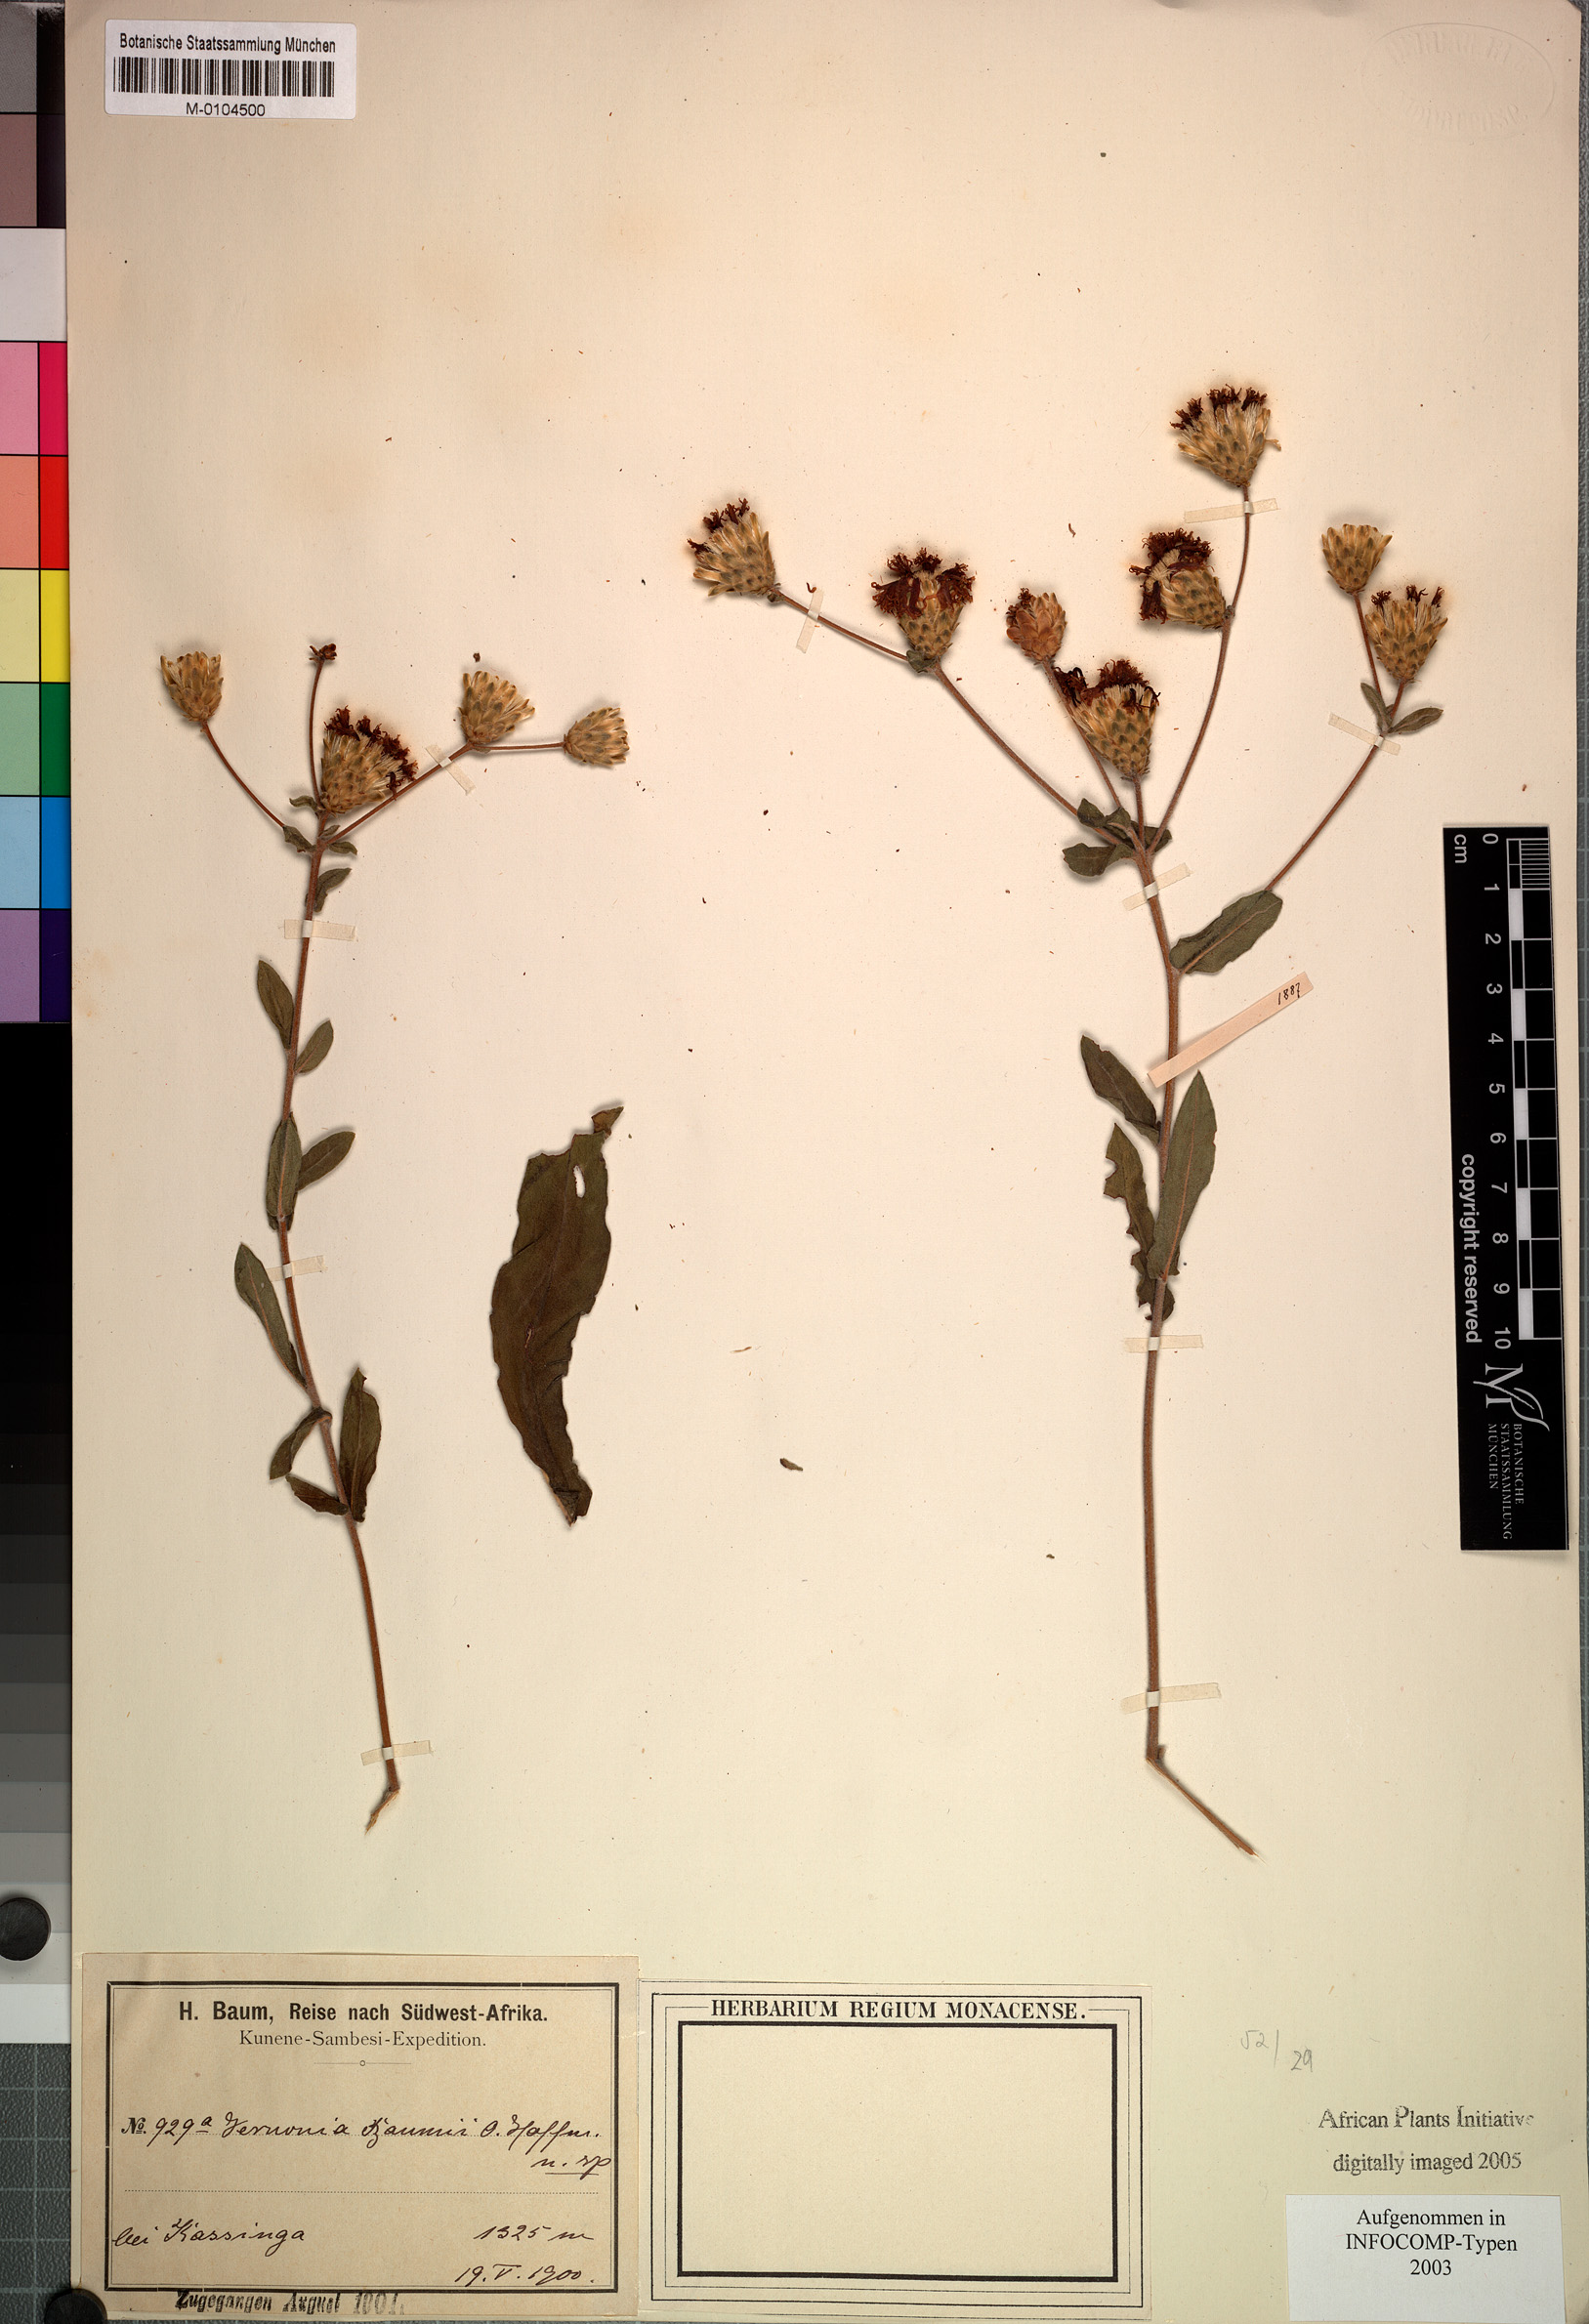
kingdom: Plantae
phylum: Tracheophyta
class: Magnoliopsida
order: Asterales
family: Asteraceae
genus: Vernonia
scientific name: Vernonia temnolepis
